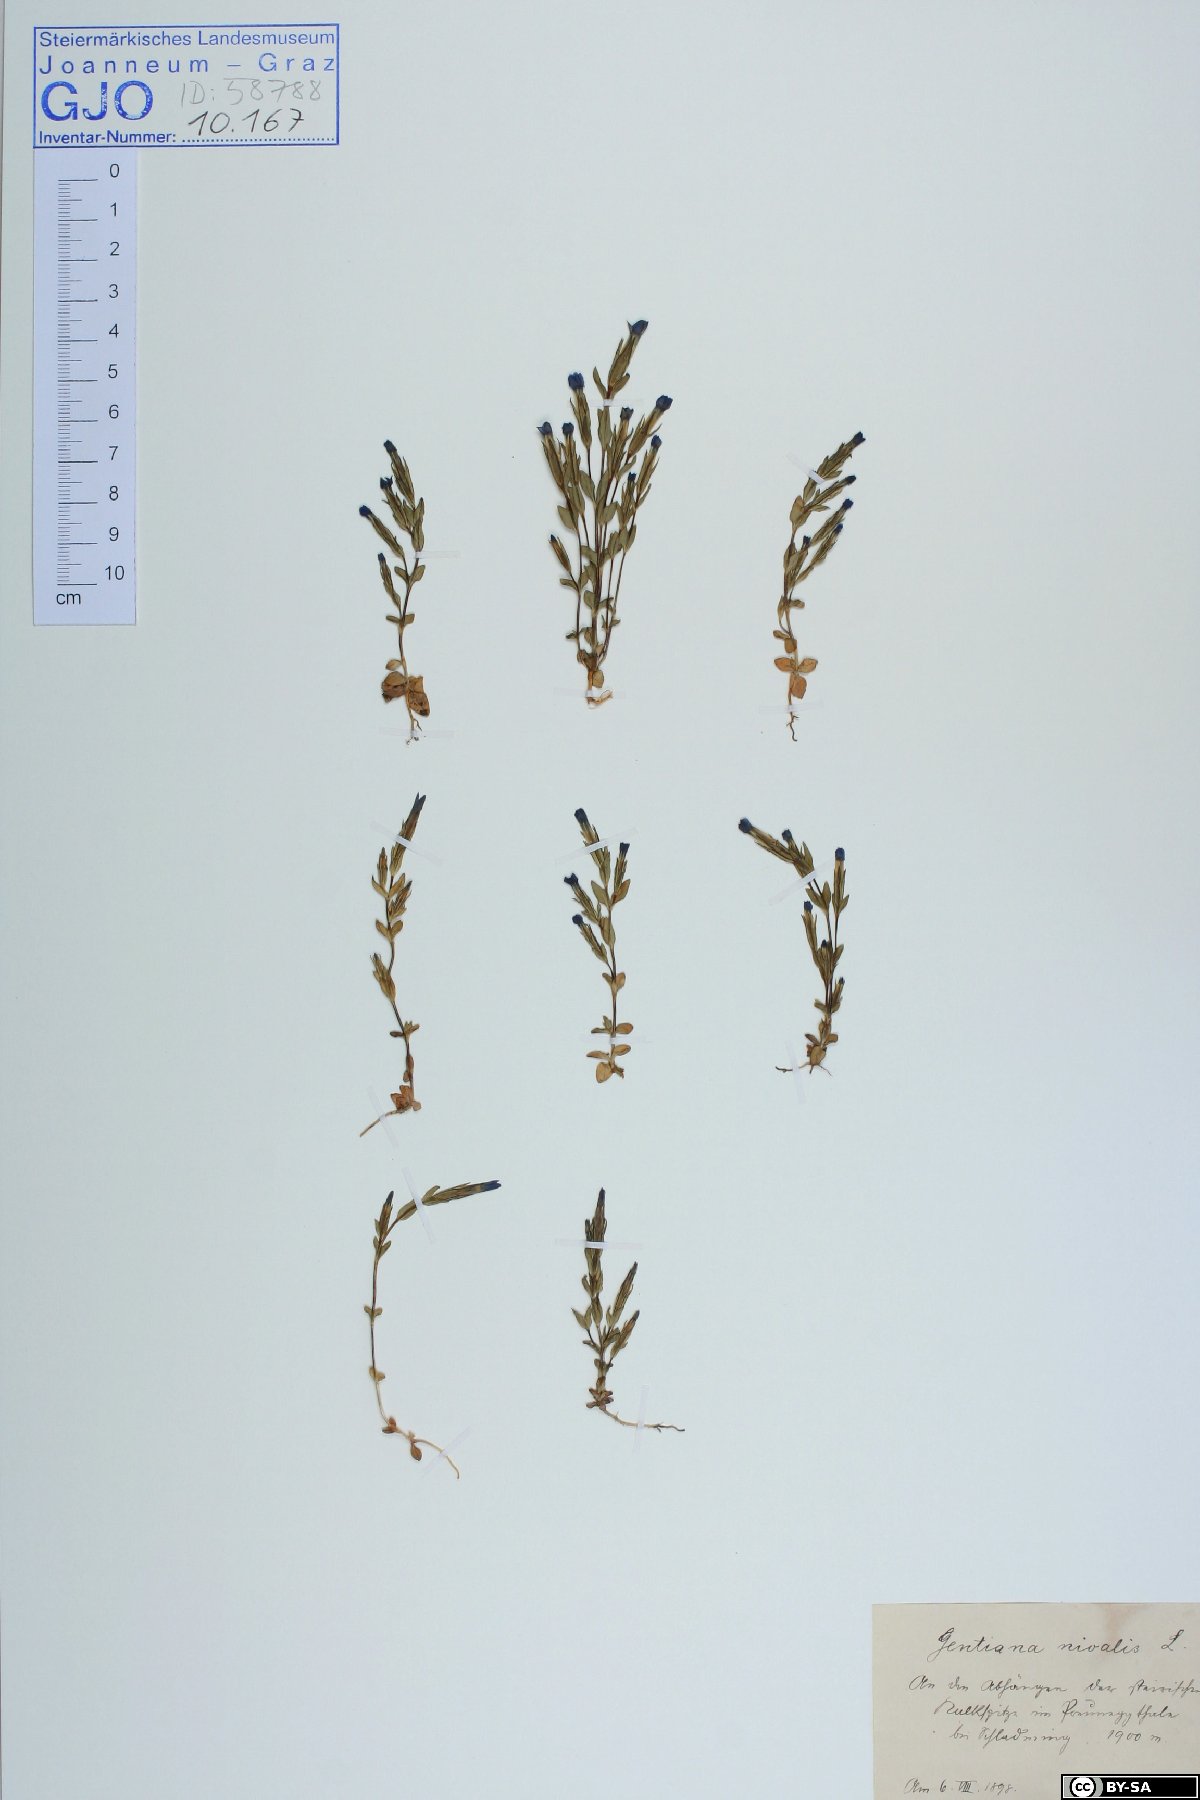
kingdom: Plantae
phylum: Tracheophyta
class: Magnoliopsida
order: Gentianales
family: Gentianaceae
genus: Gentiana
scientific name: Gentiana nivalis
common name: Alpine gentian
